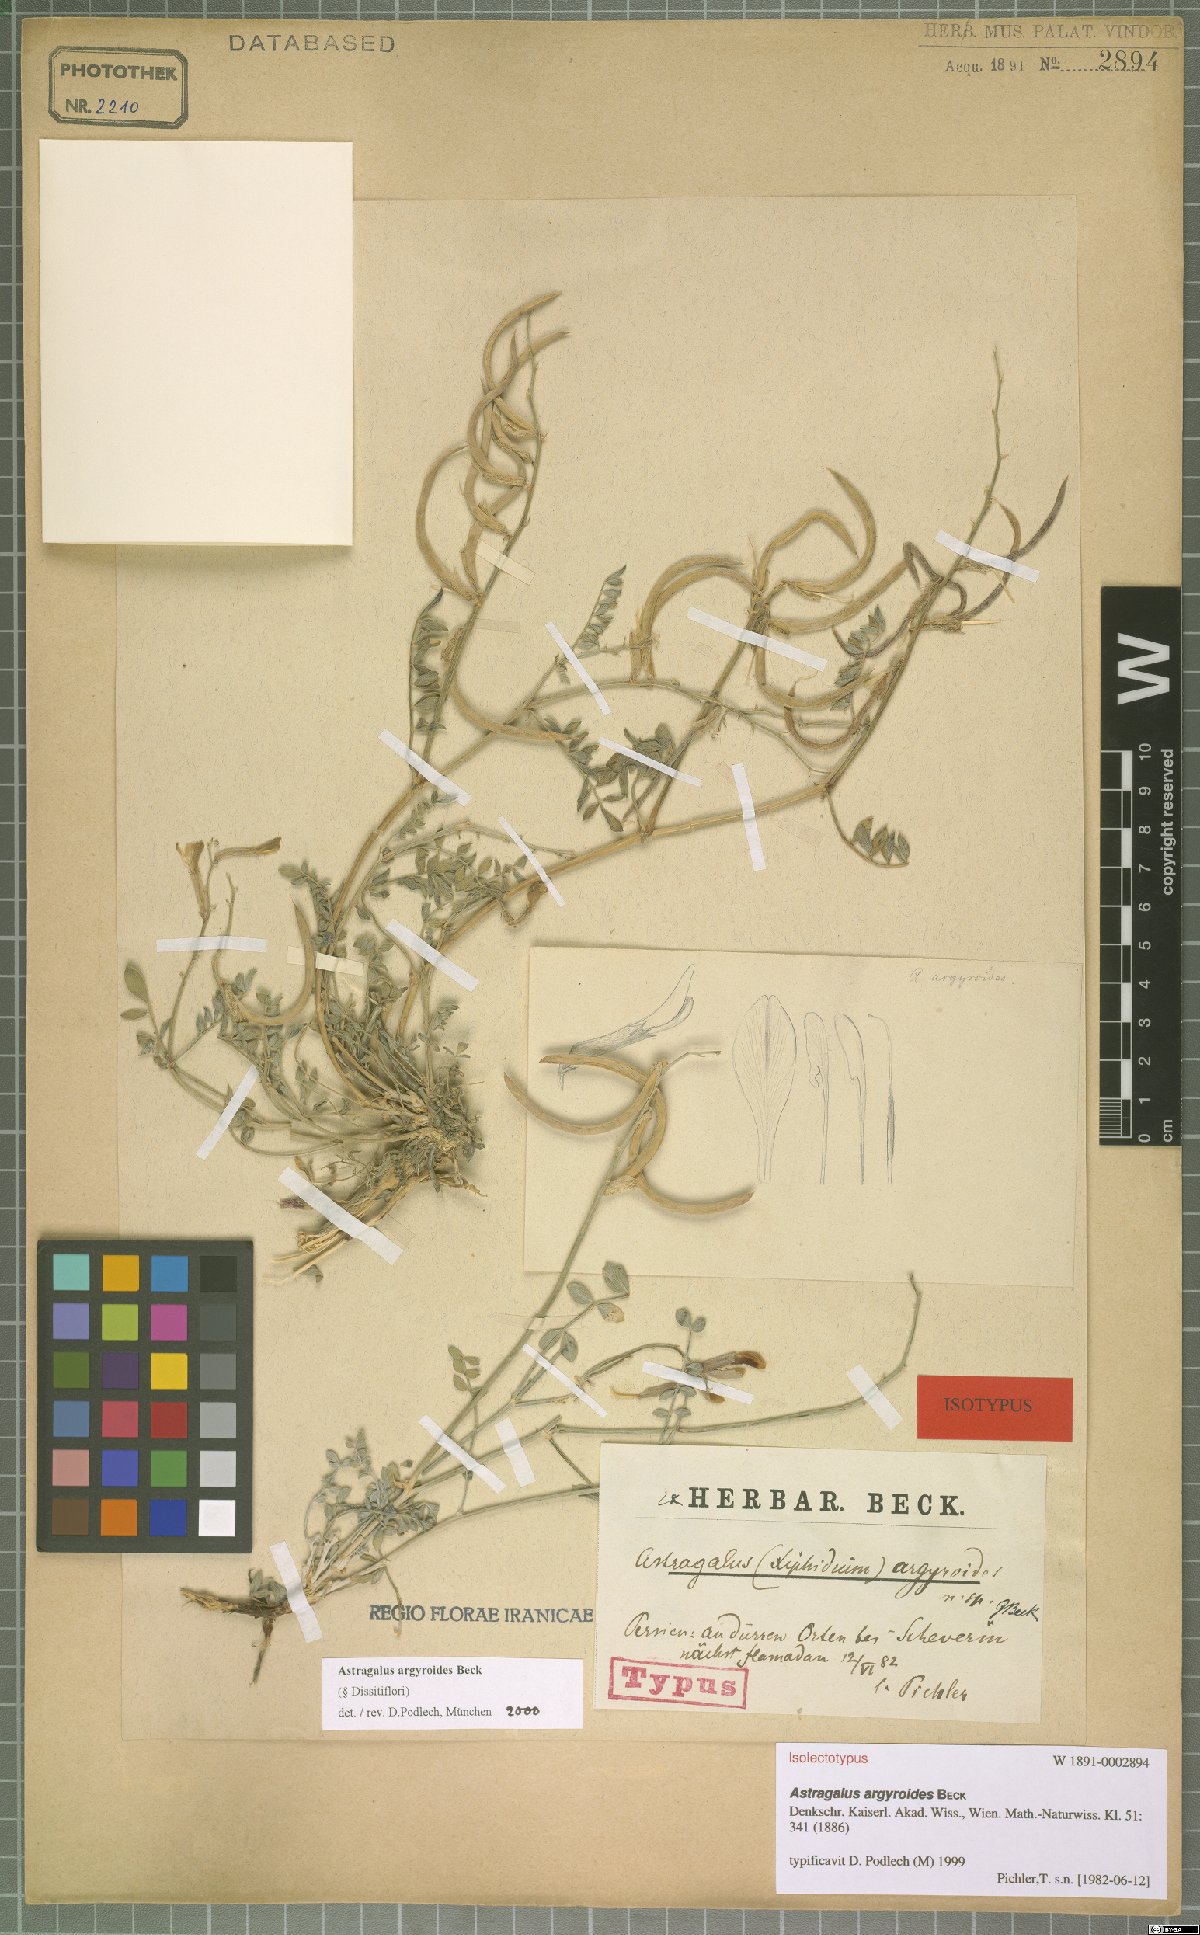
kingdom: Plantae
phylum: Tracheophyta
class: Magnoliopsida
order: Fabales
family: Fabaceae
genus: Astragalus
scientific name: Astragalus argyroides
